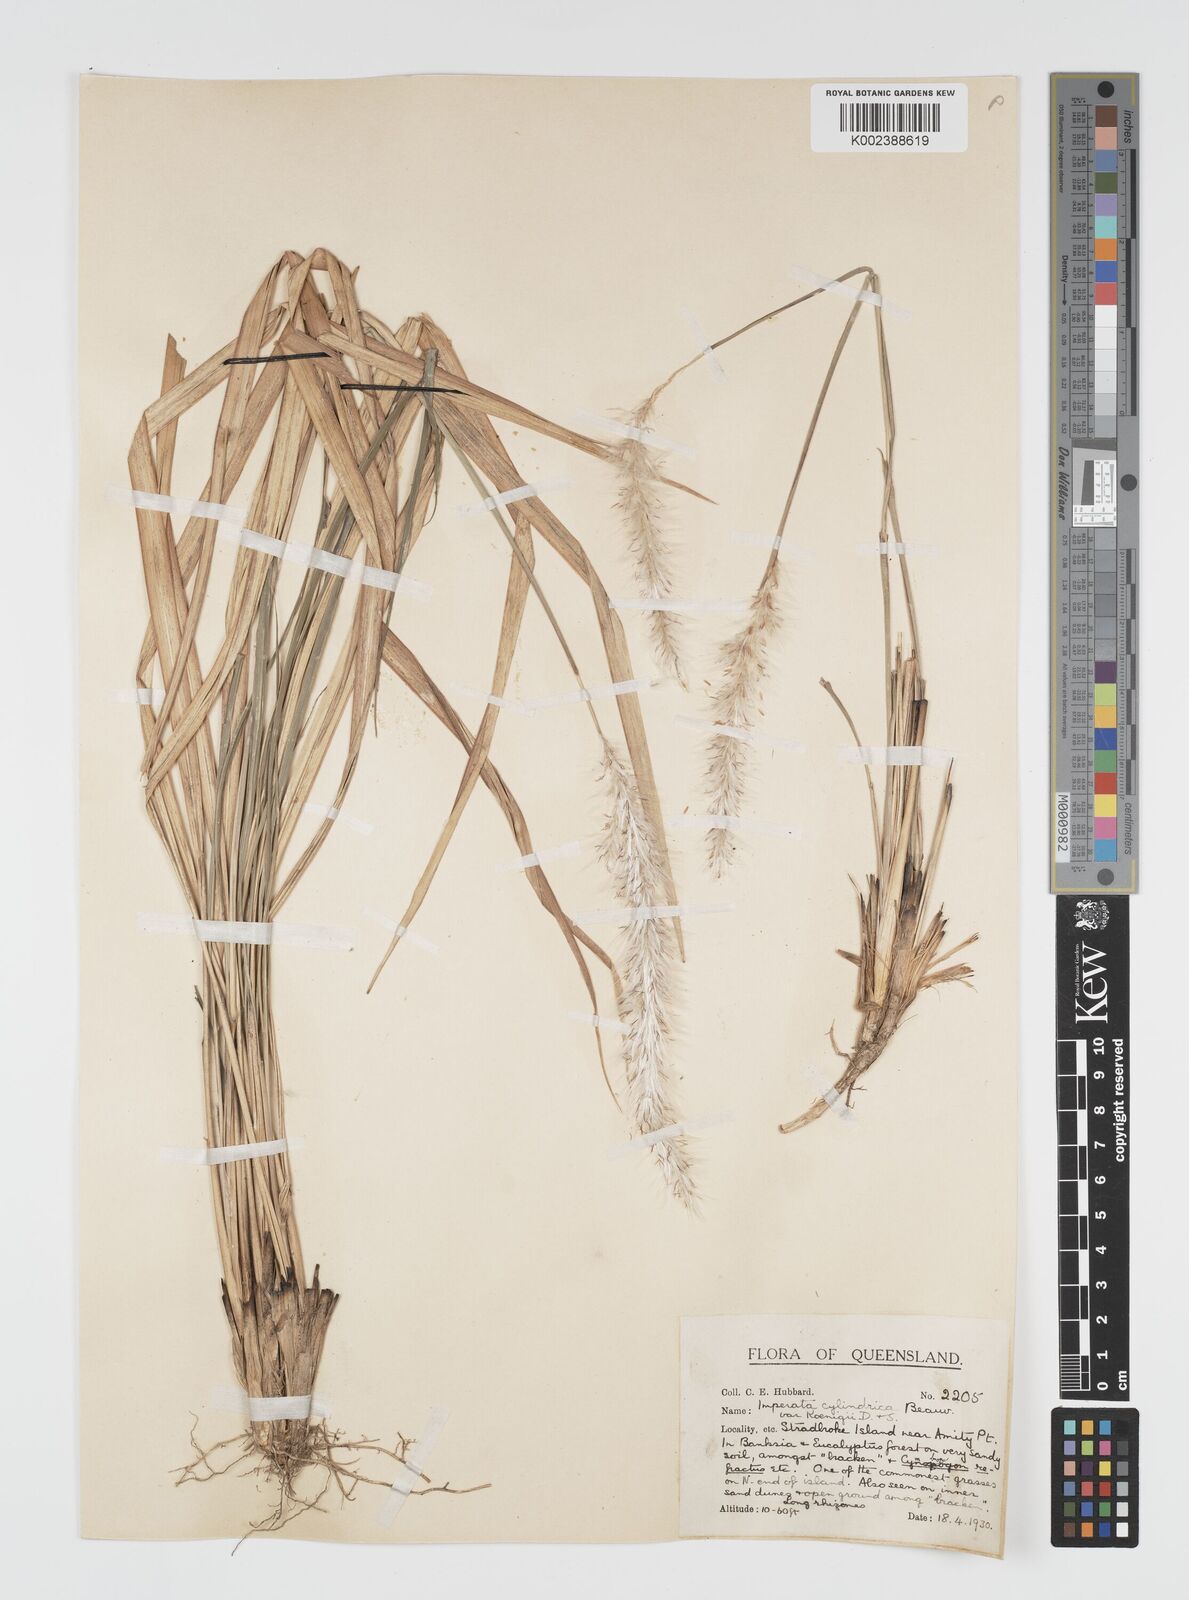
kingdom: Plantae
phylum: Tracheophyta
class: Liliopsida
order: Poales
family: Poaceae
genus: Imperata
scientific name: Imperata cylindrica
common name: Cogongrass
